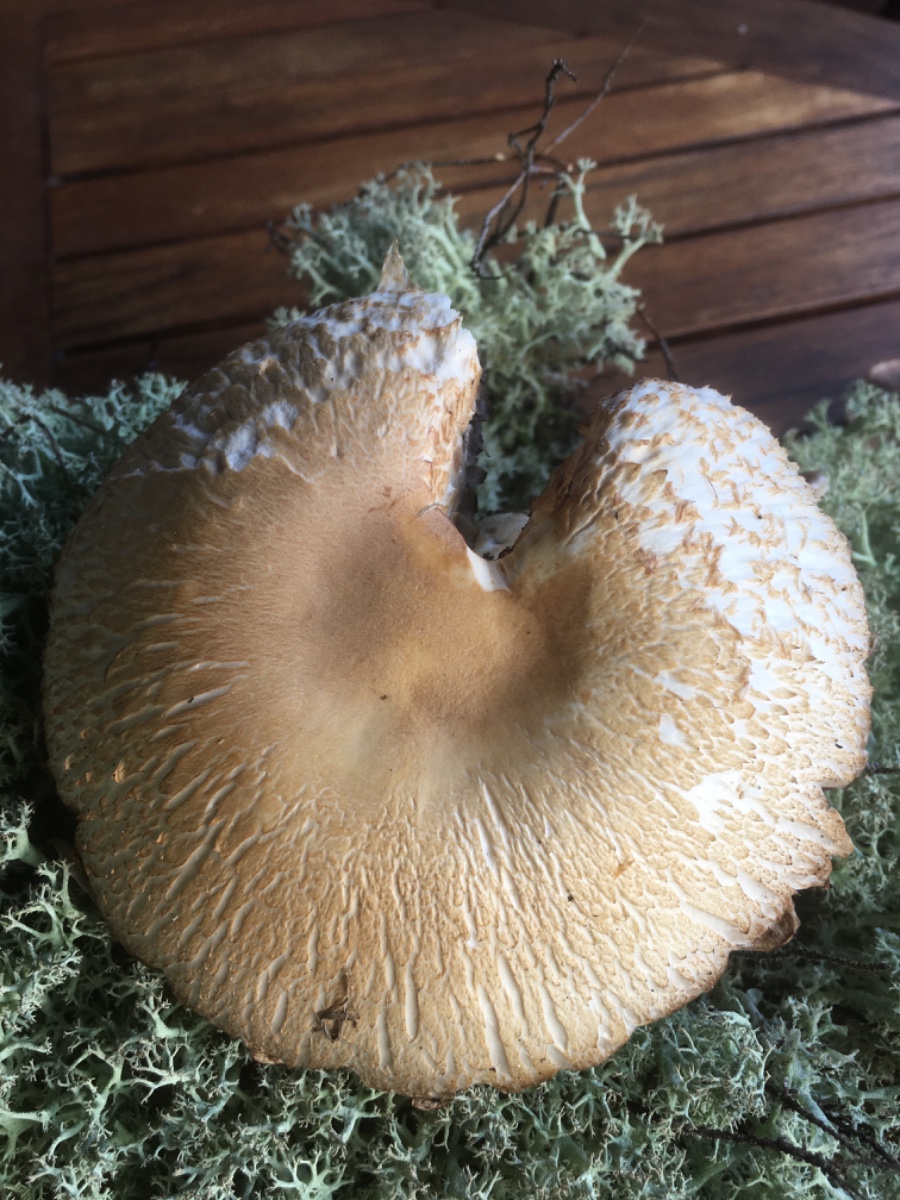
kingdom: Fungi
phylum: Basidiomycota
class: Agaricomycetes
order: Agaricales
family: Agaricaceae
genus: Agaricus
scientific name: Agaricus
